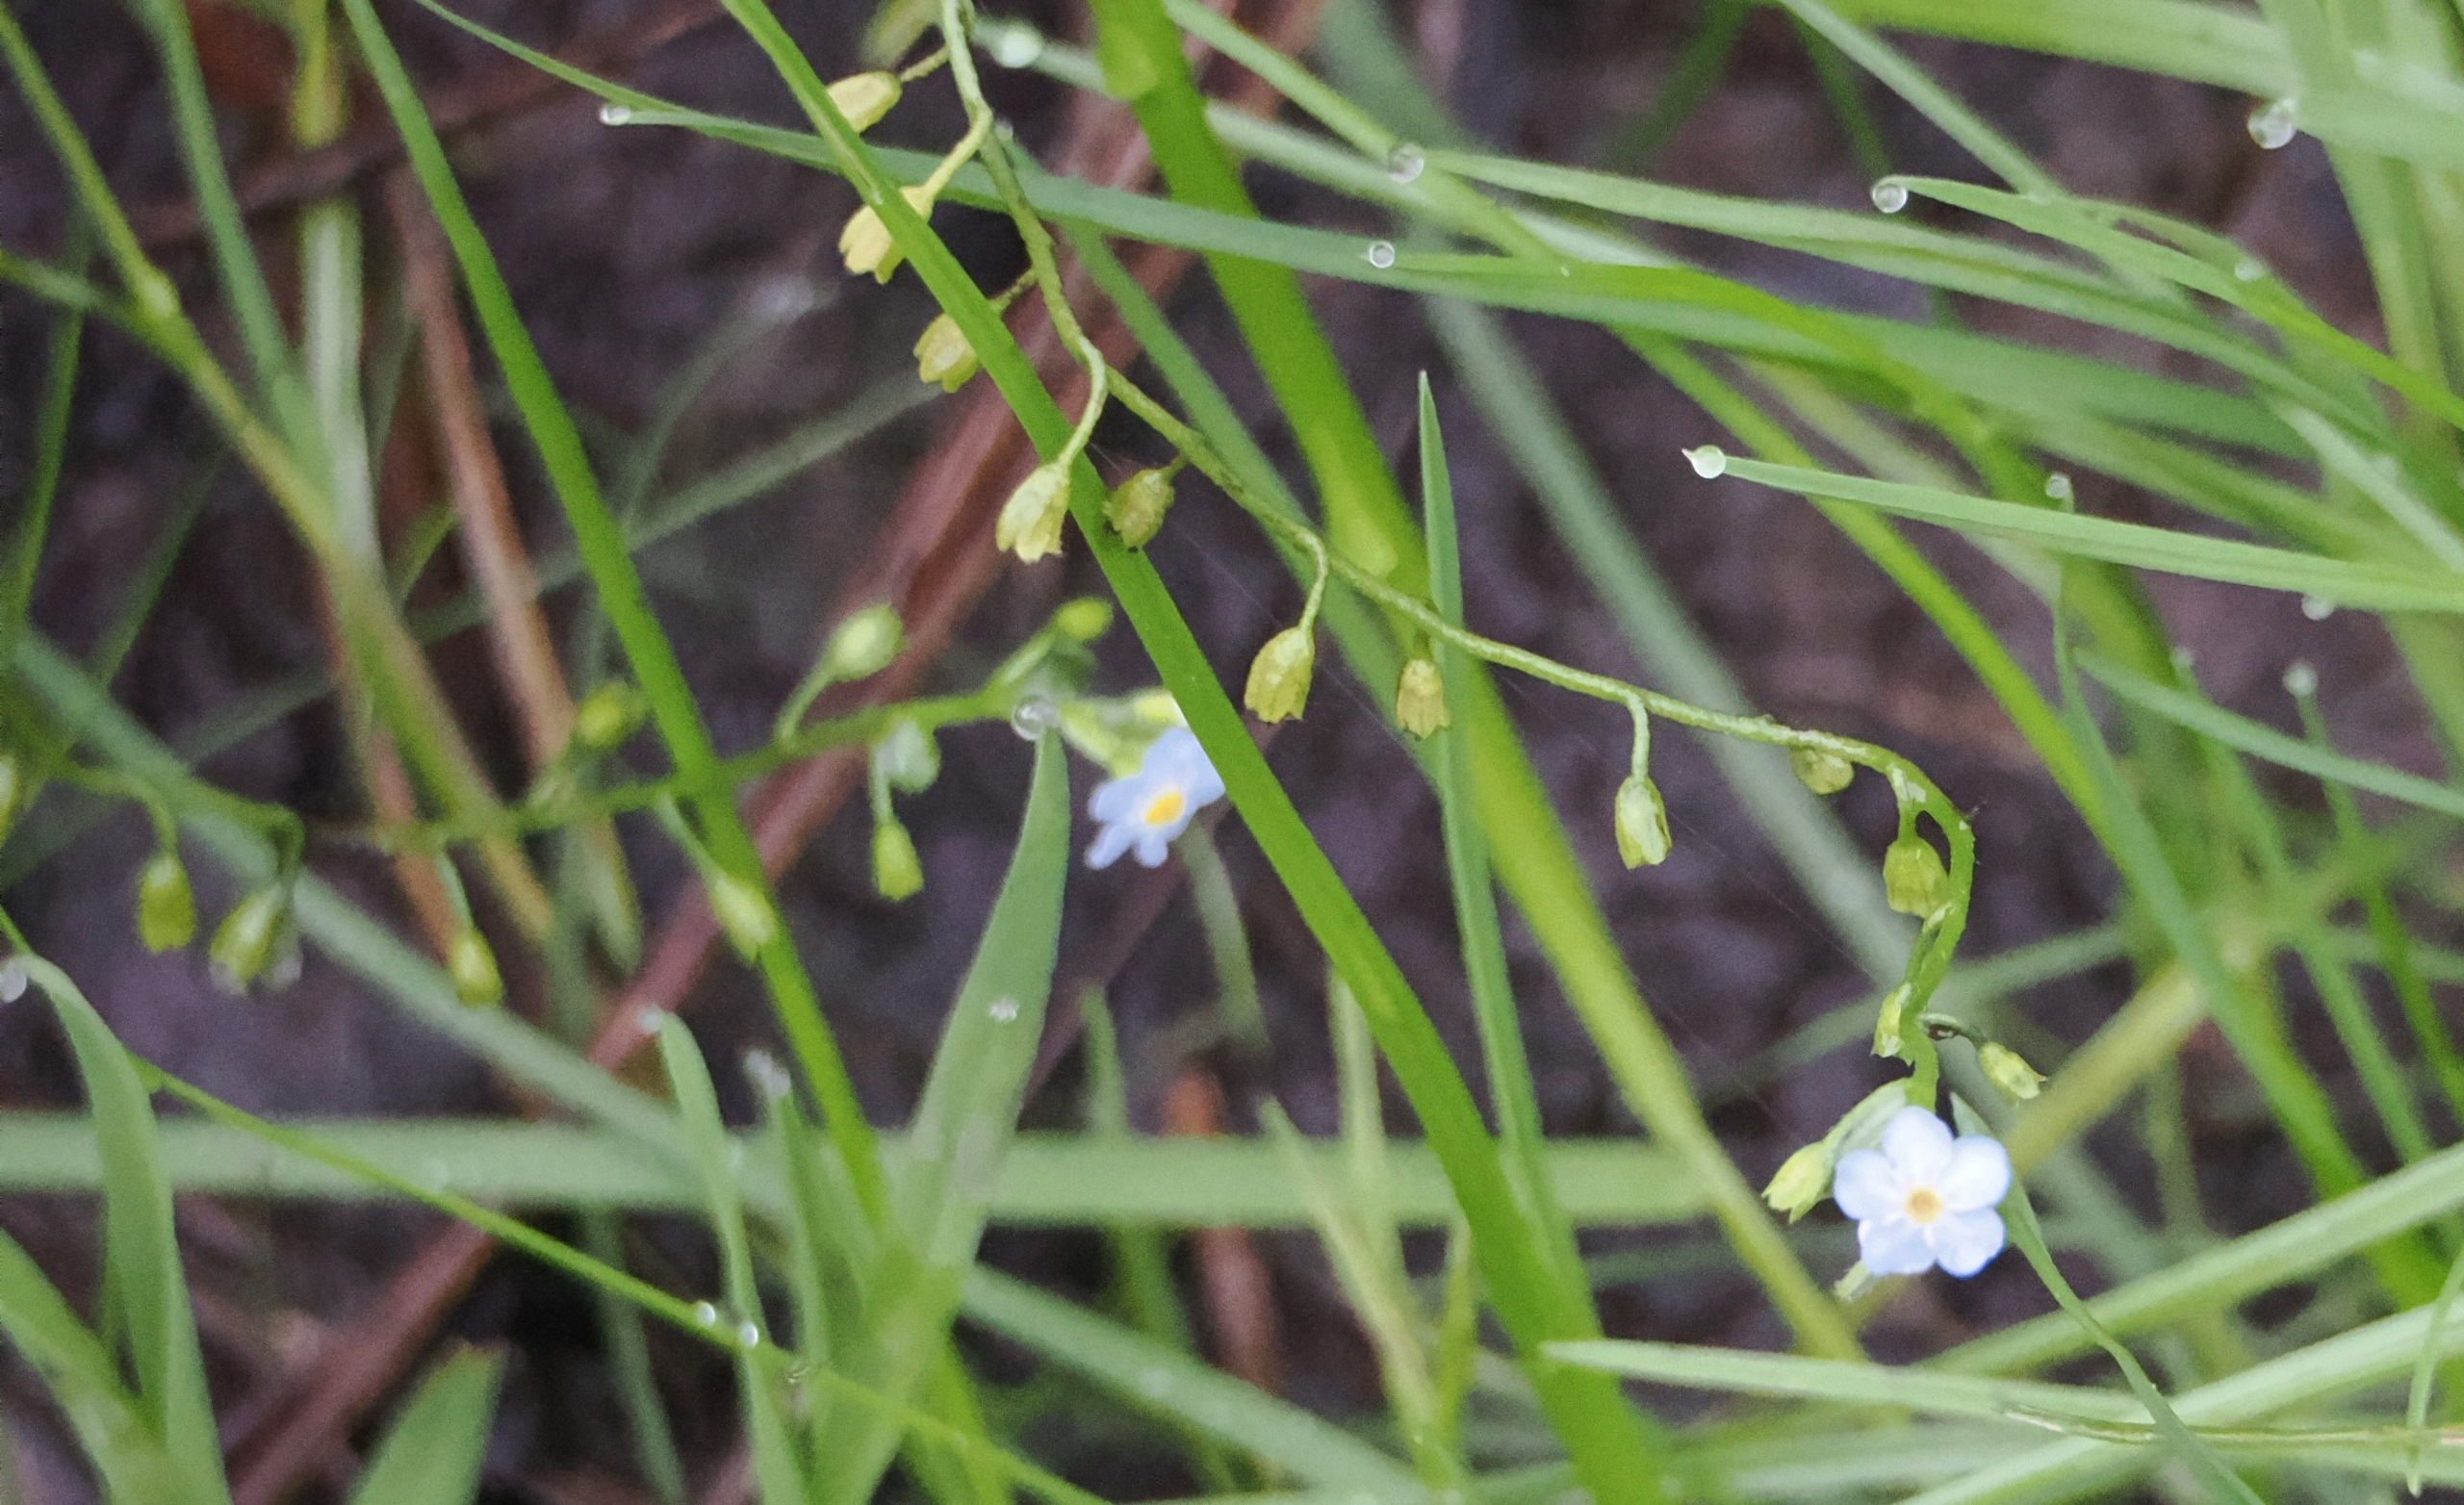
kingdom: Plantae
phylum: Tracheophyta
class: Magnoliopsida
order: Boraginales
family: Boraginaceae
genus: Myosotis
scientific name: Myosotis scorpioides
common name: Eng-forglemmigej
